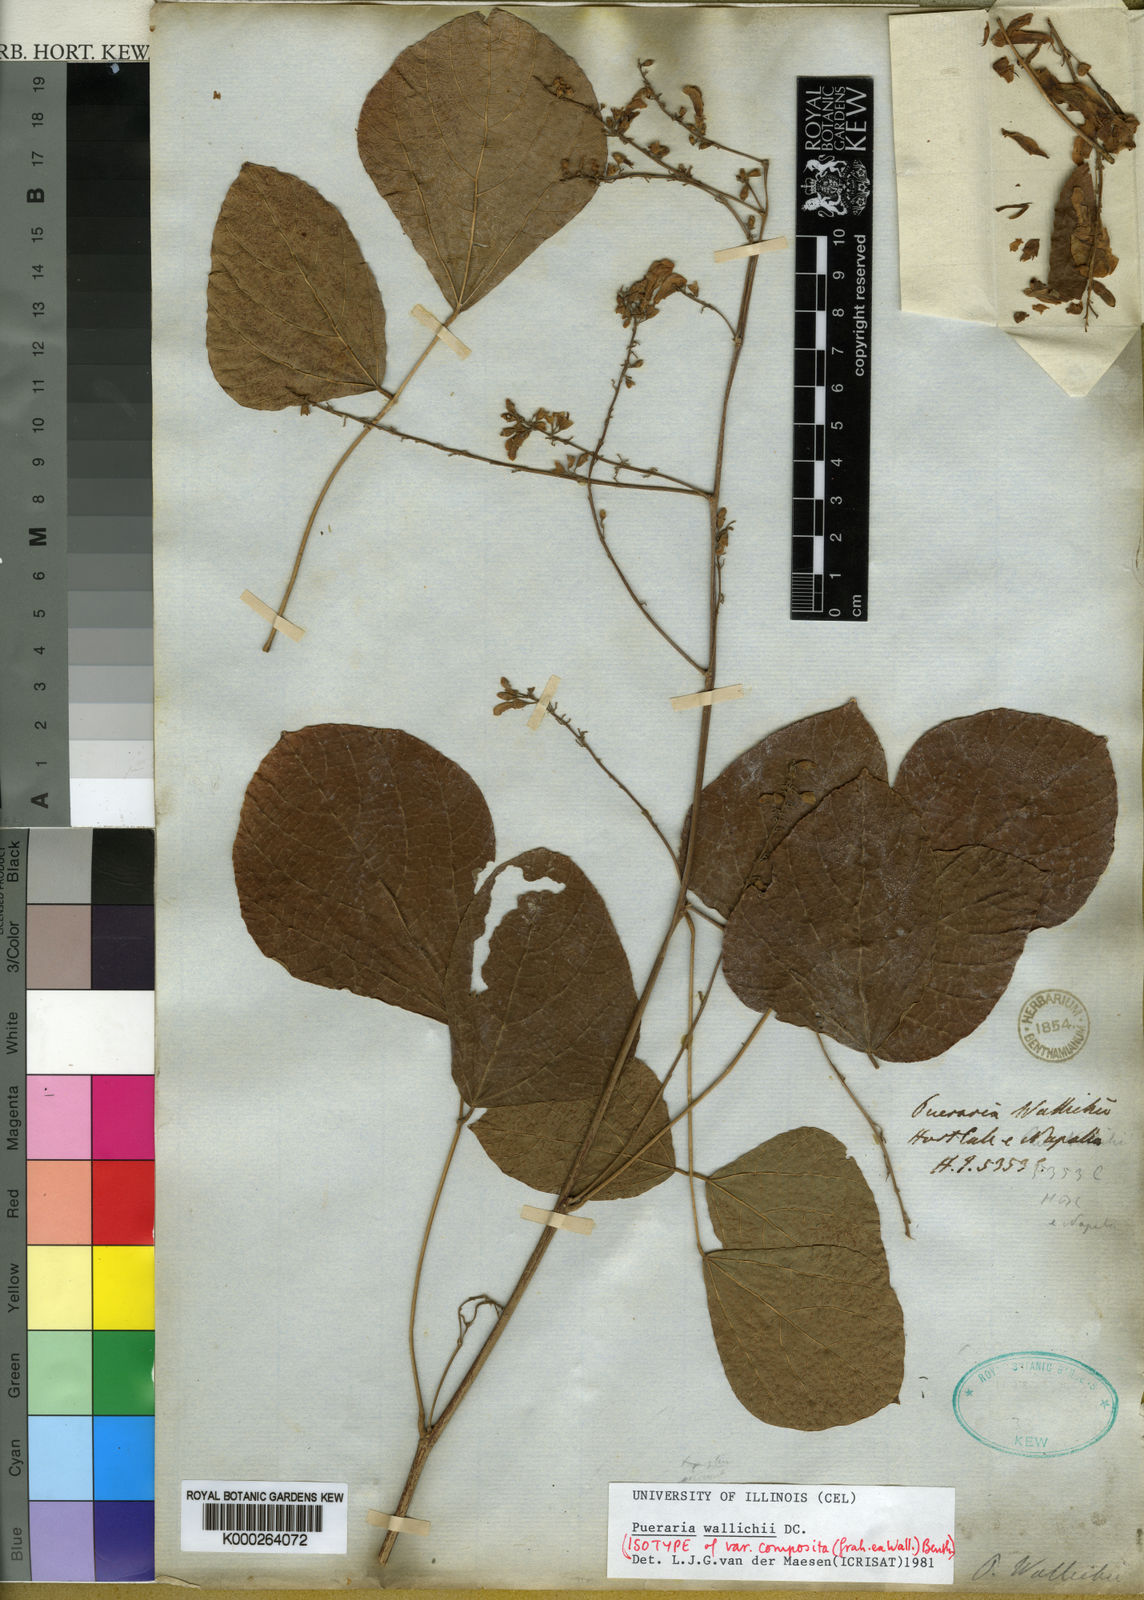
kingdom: Plantae
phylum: Tracheophyta
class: Magnoliopsida
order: Fabales
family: Fabaceae
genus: Haymondia
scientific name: Haymondia wallichii
